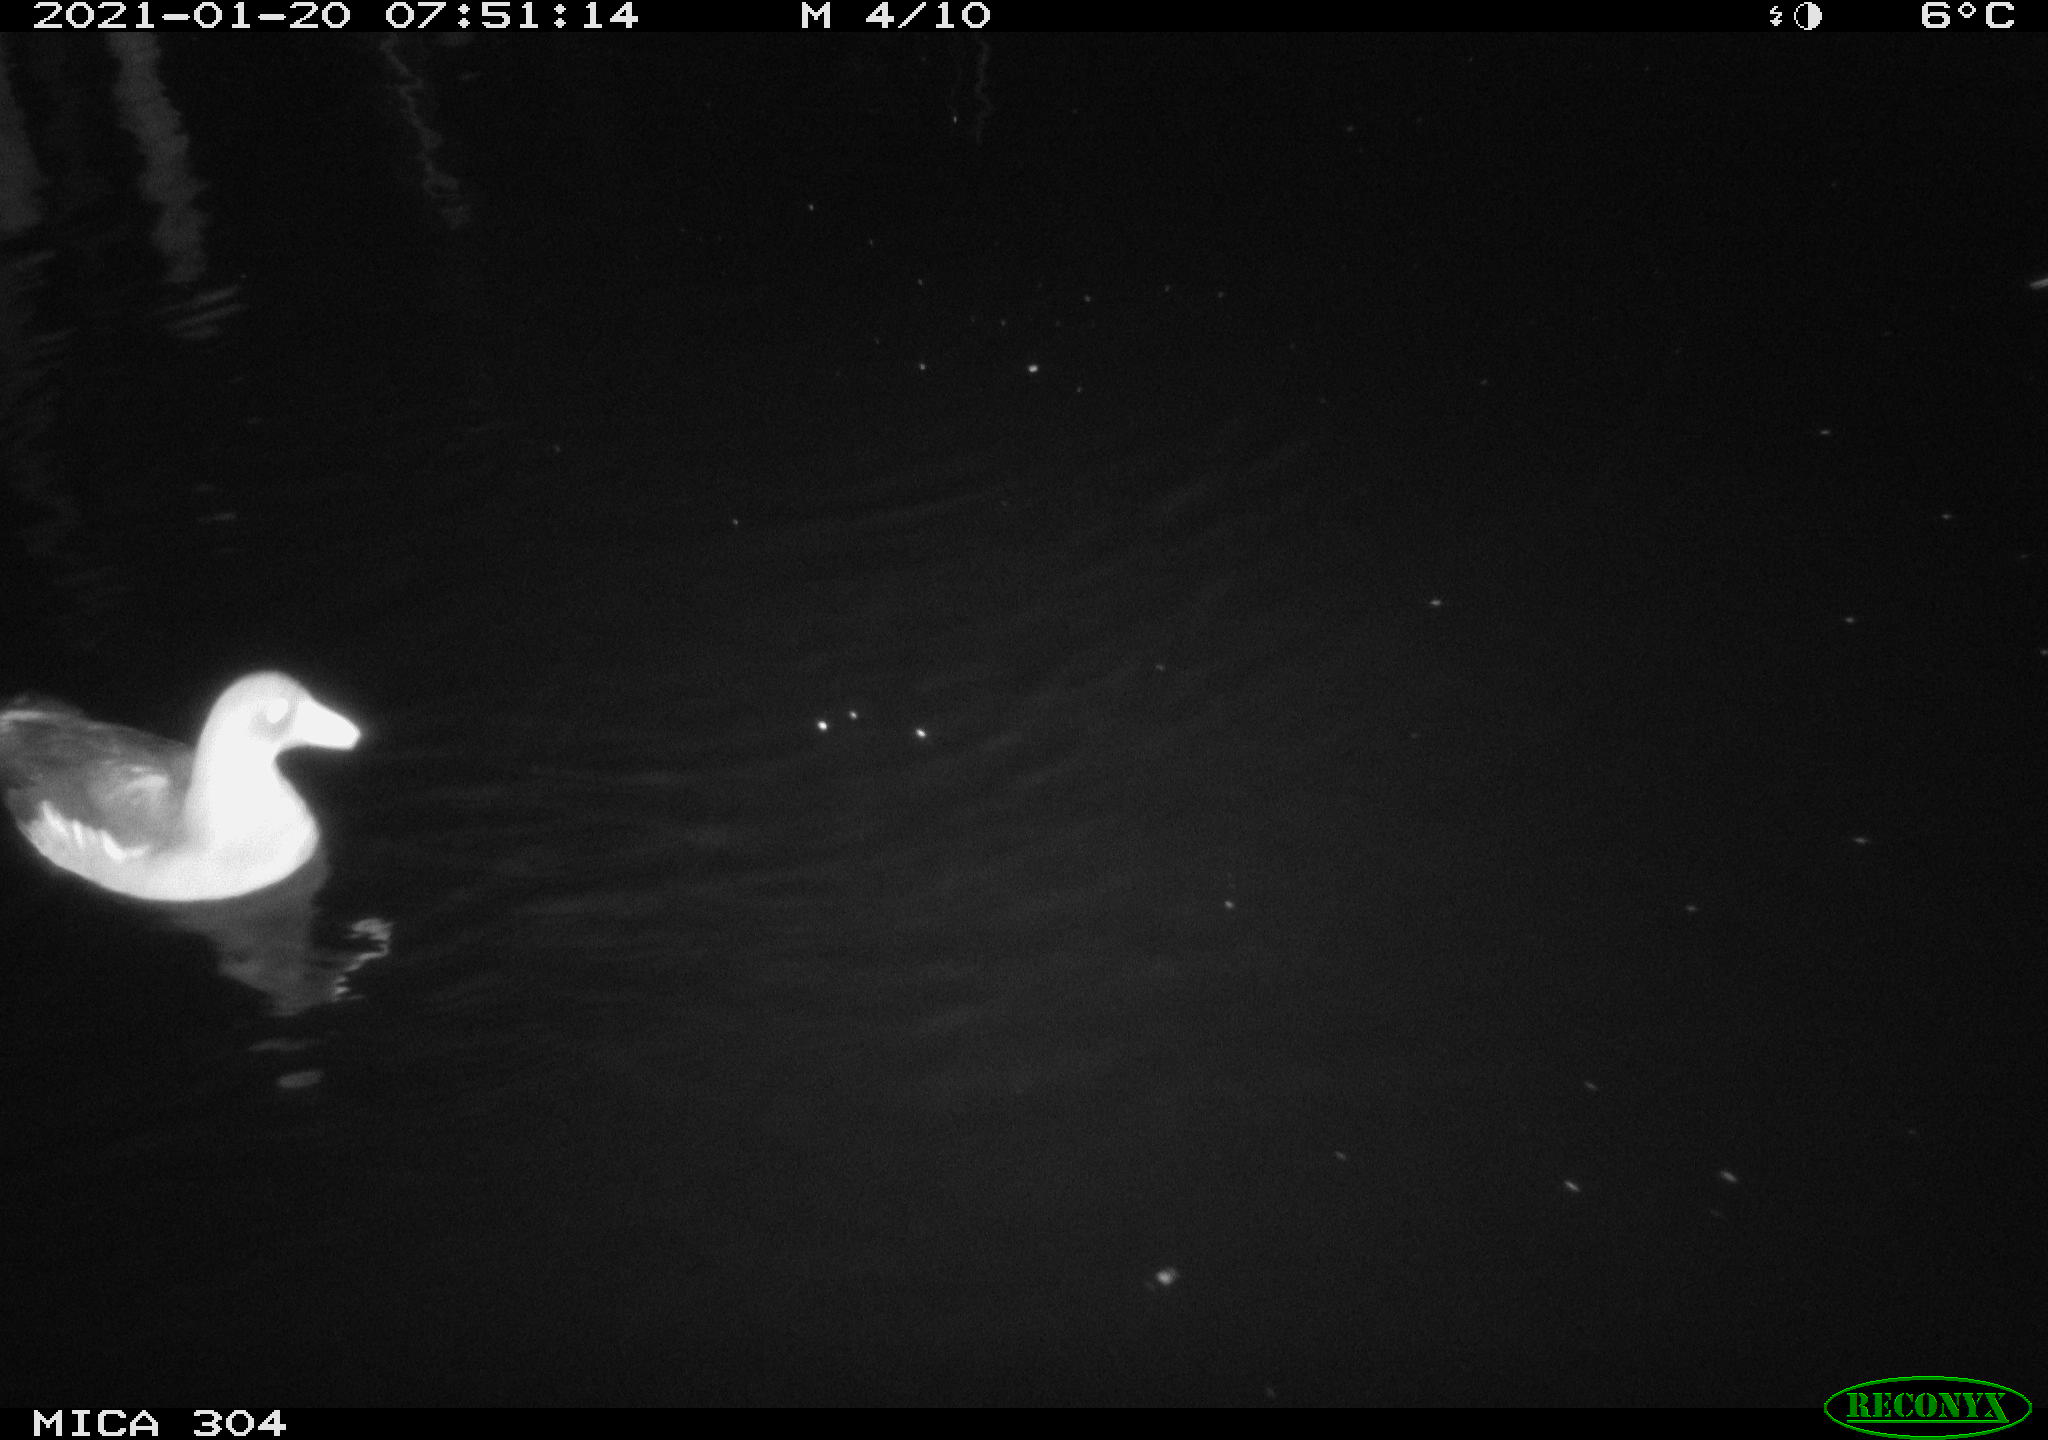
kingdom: Animalia
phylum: Chordata
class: Aves
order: Gruiformes
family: Rallidae
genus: Gallinula
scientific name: Gallinula chloropus
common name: Common moorhen
